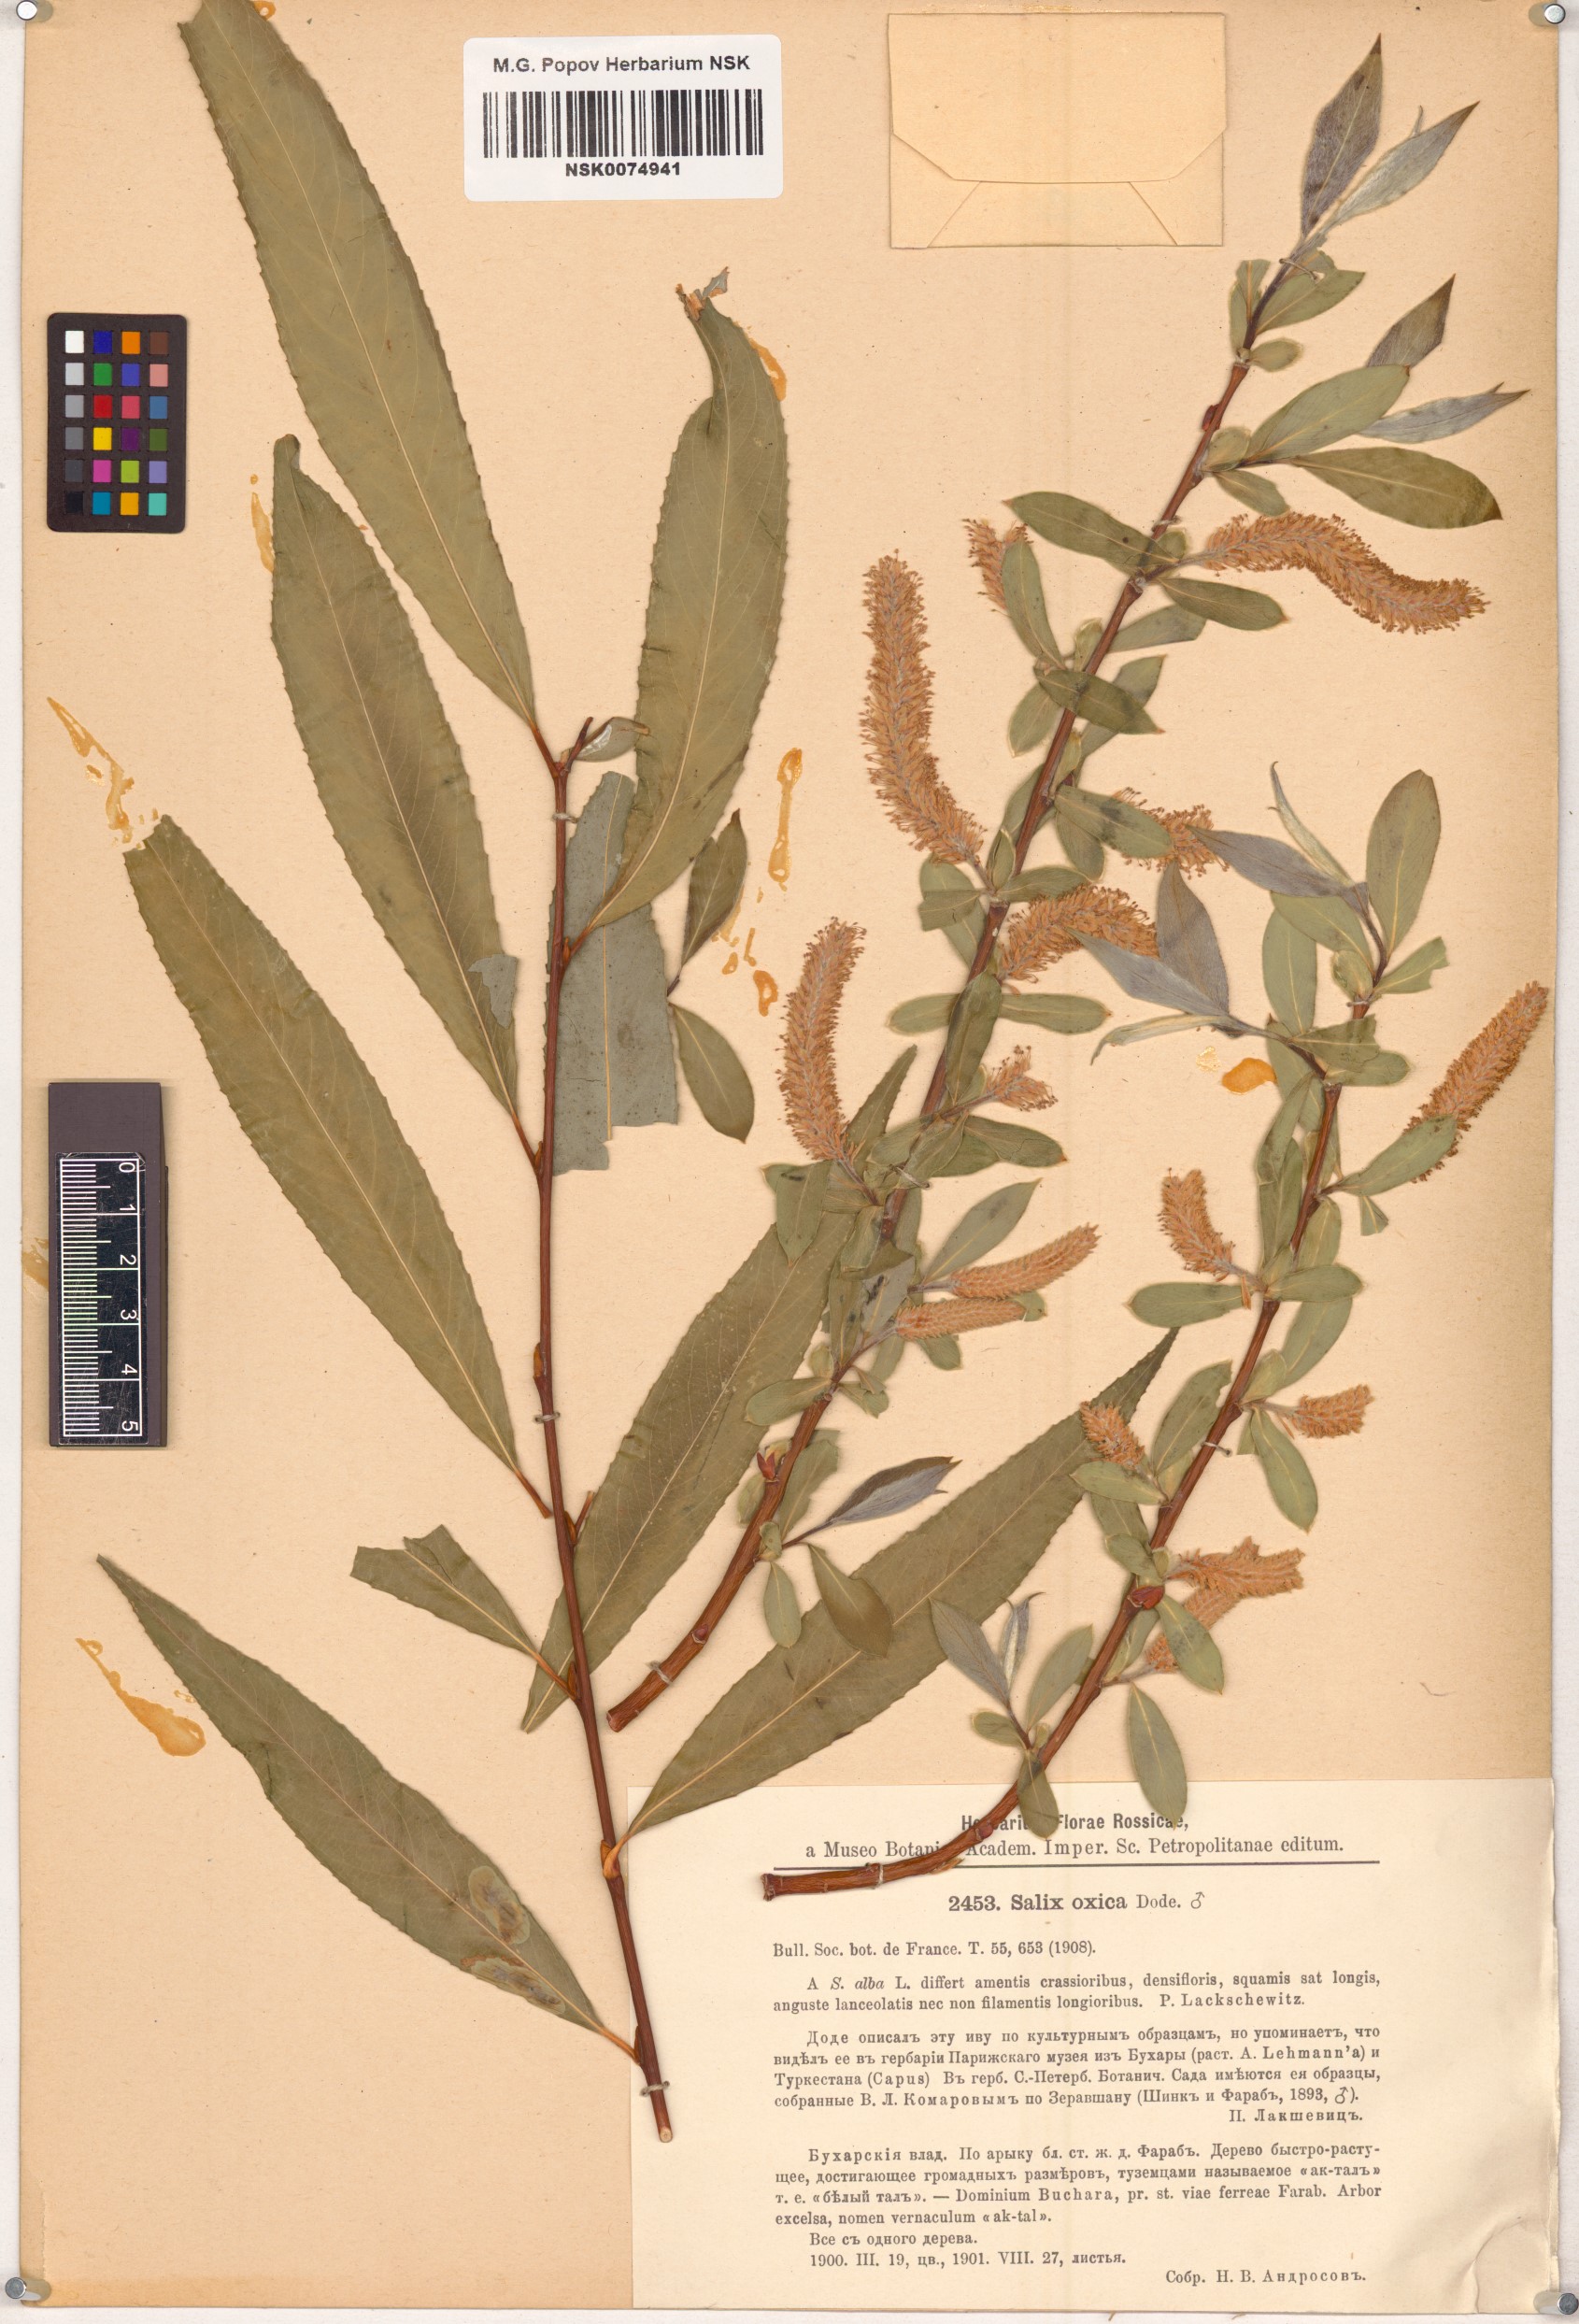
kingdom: Plantae
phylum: Tracheophyta
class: Magnoliopsida
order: Malpighiales
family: Salicaceae
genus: Salix
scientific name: Salix excelsa
